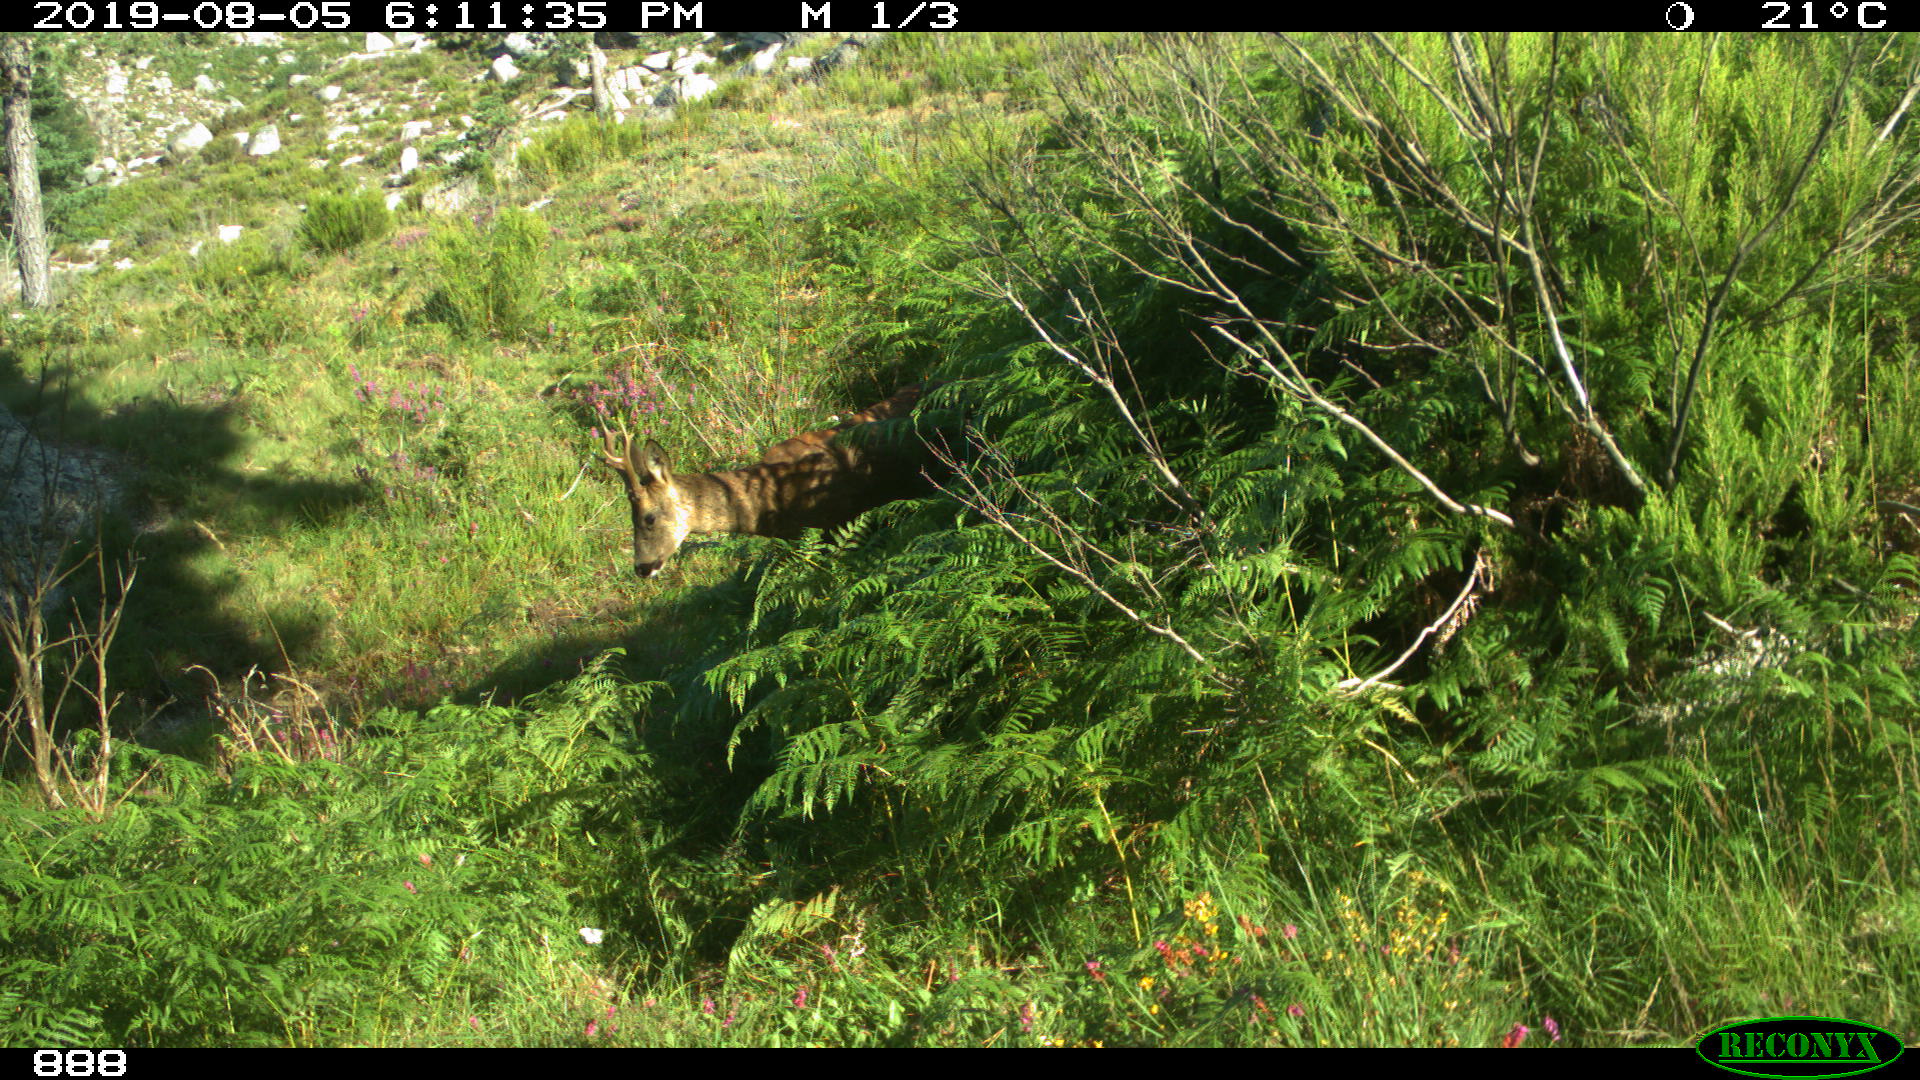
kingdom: Animalia
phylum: Chordata
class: Mammalia
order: Artiodactyla
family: Cervidae
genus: Capreolus
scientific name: Capreolus capreolus
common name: Western roe deer
